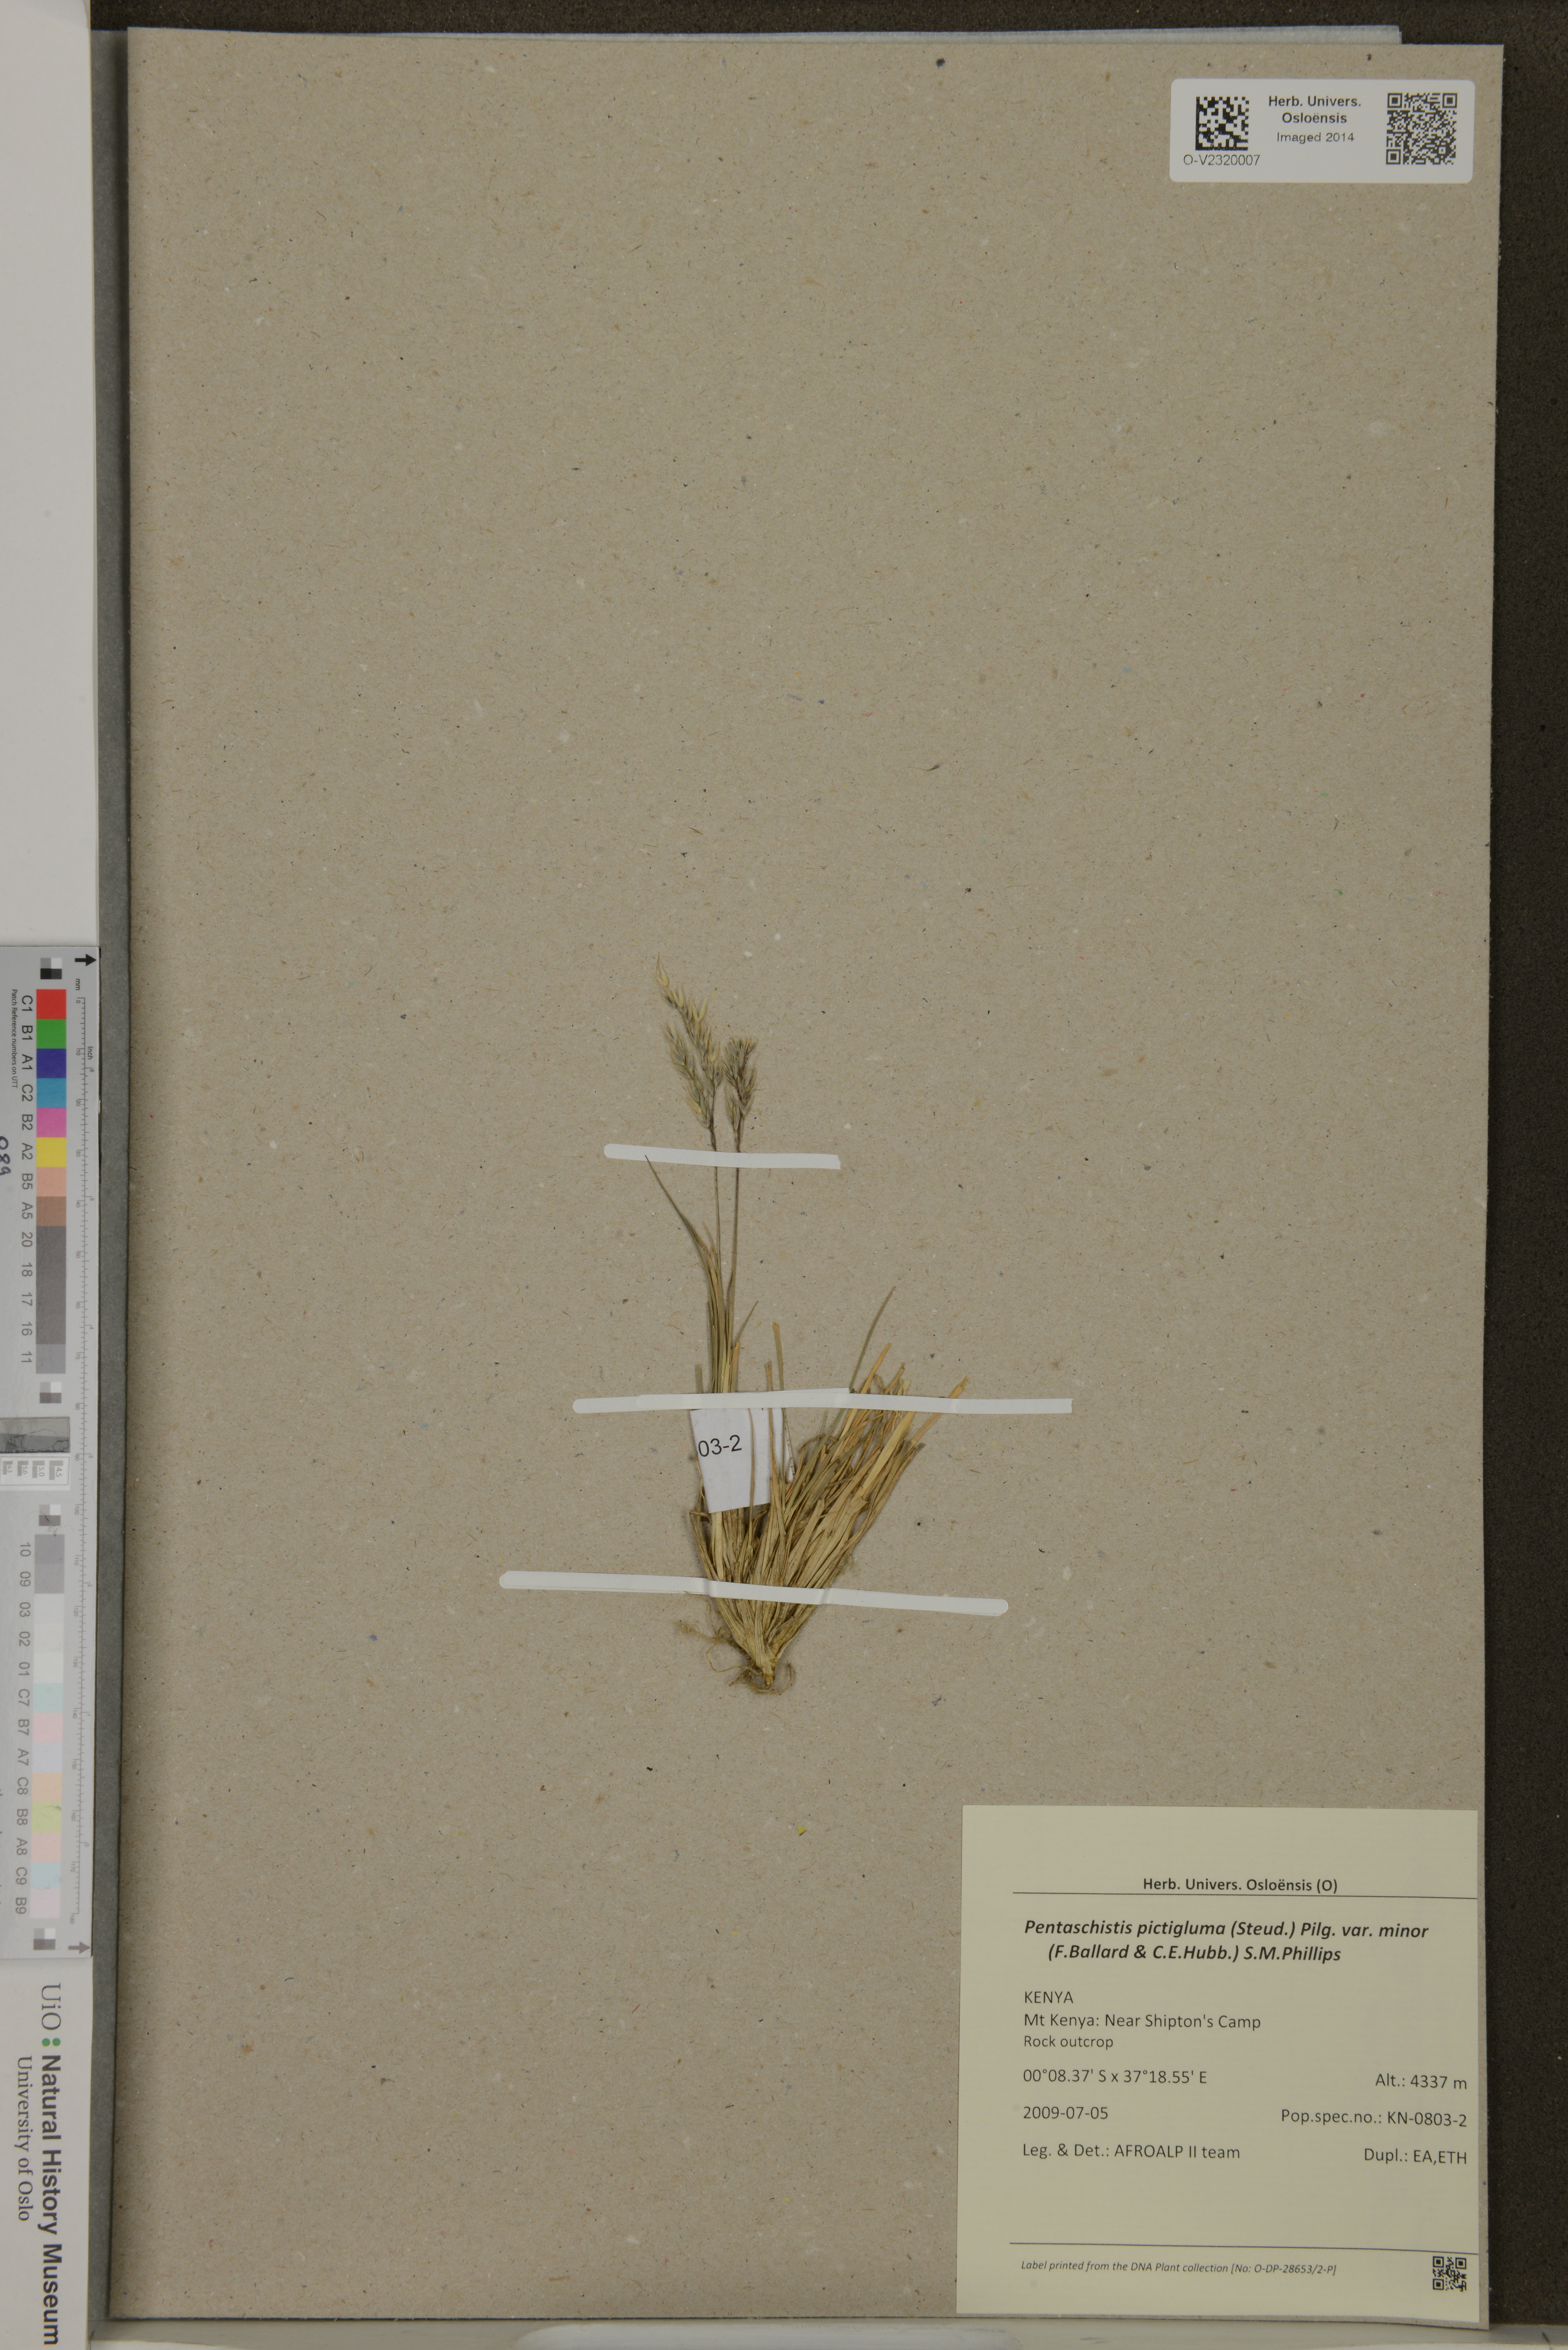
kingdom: Plantae
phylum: Tracheophyta
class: Liliopsida
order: Poales
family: Poaceae
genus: Pentameris
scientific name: Pentameris pictigluma
